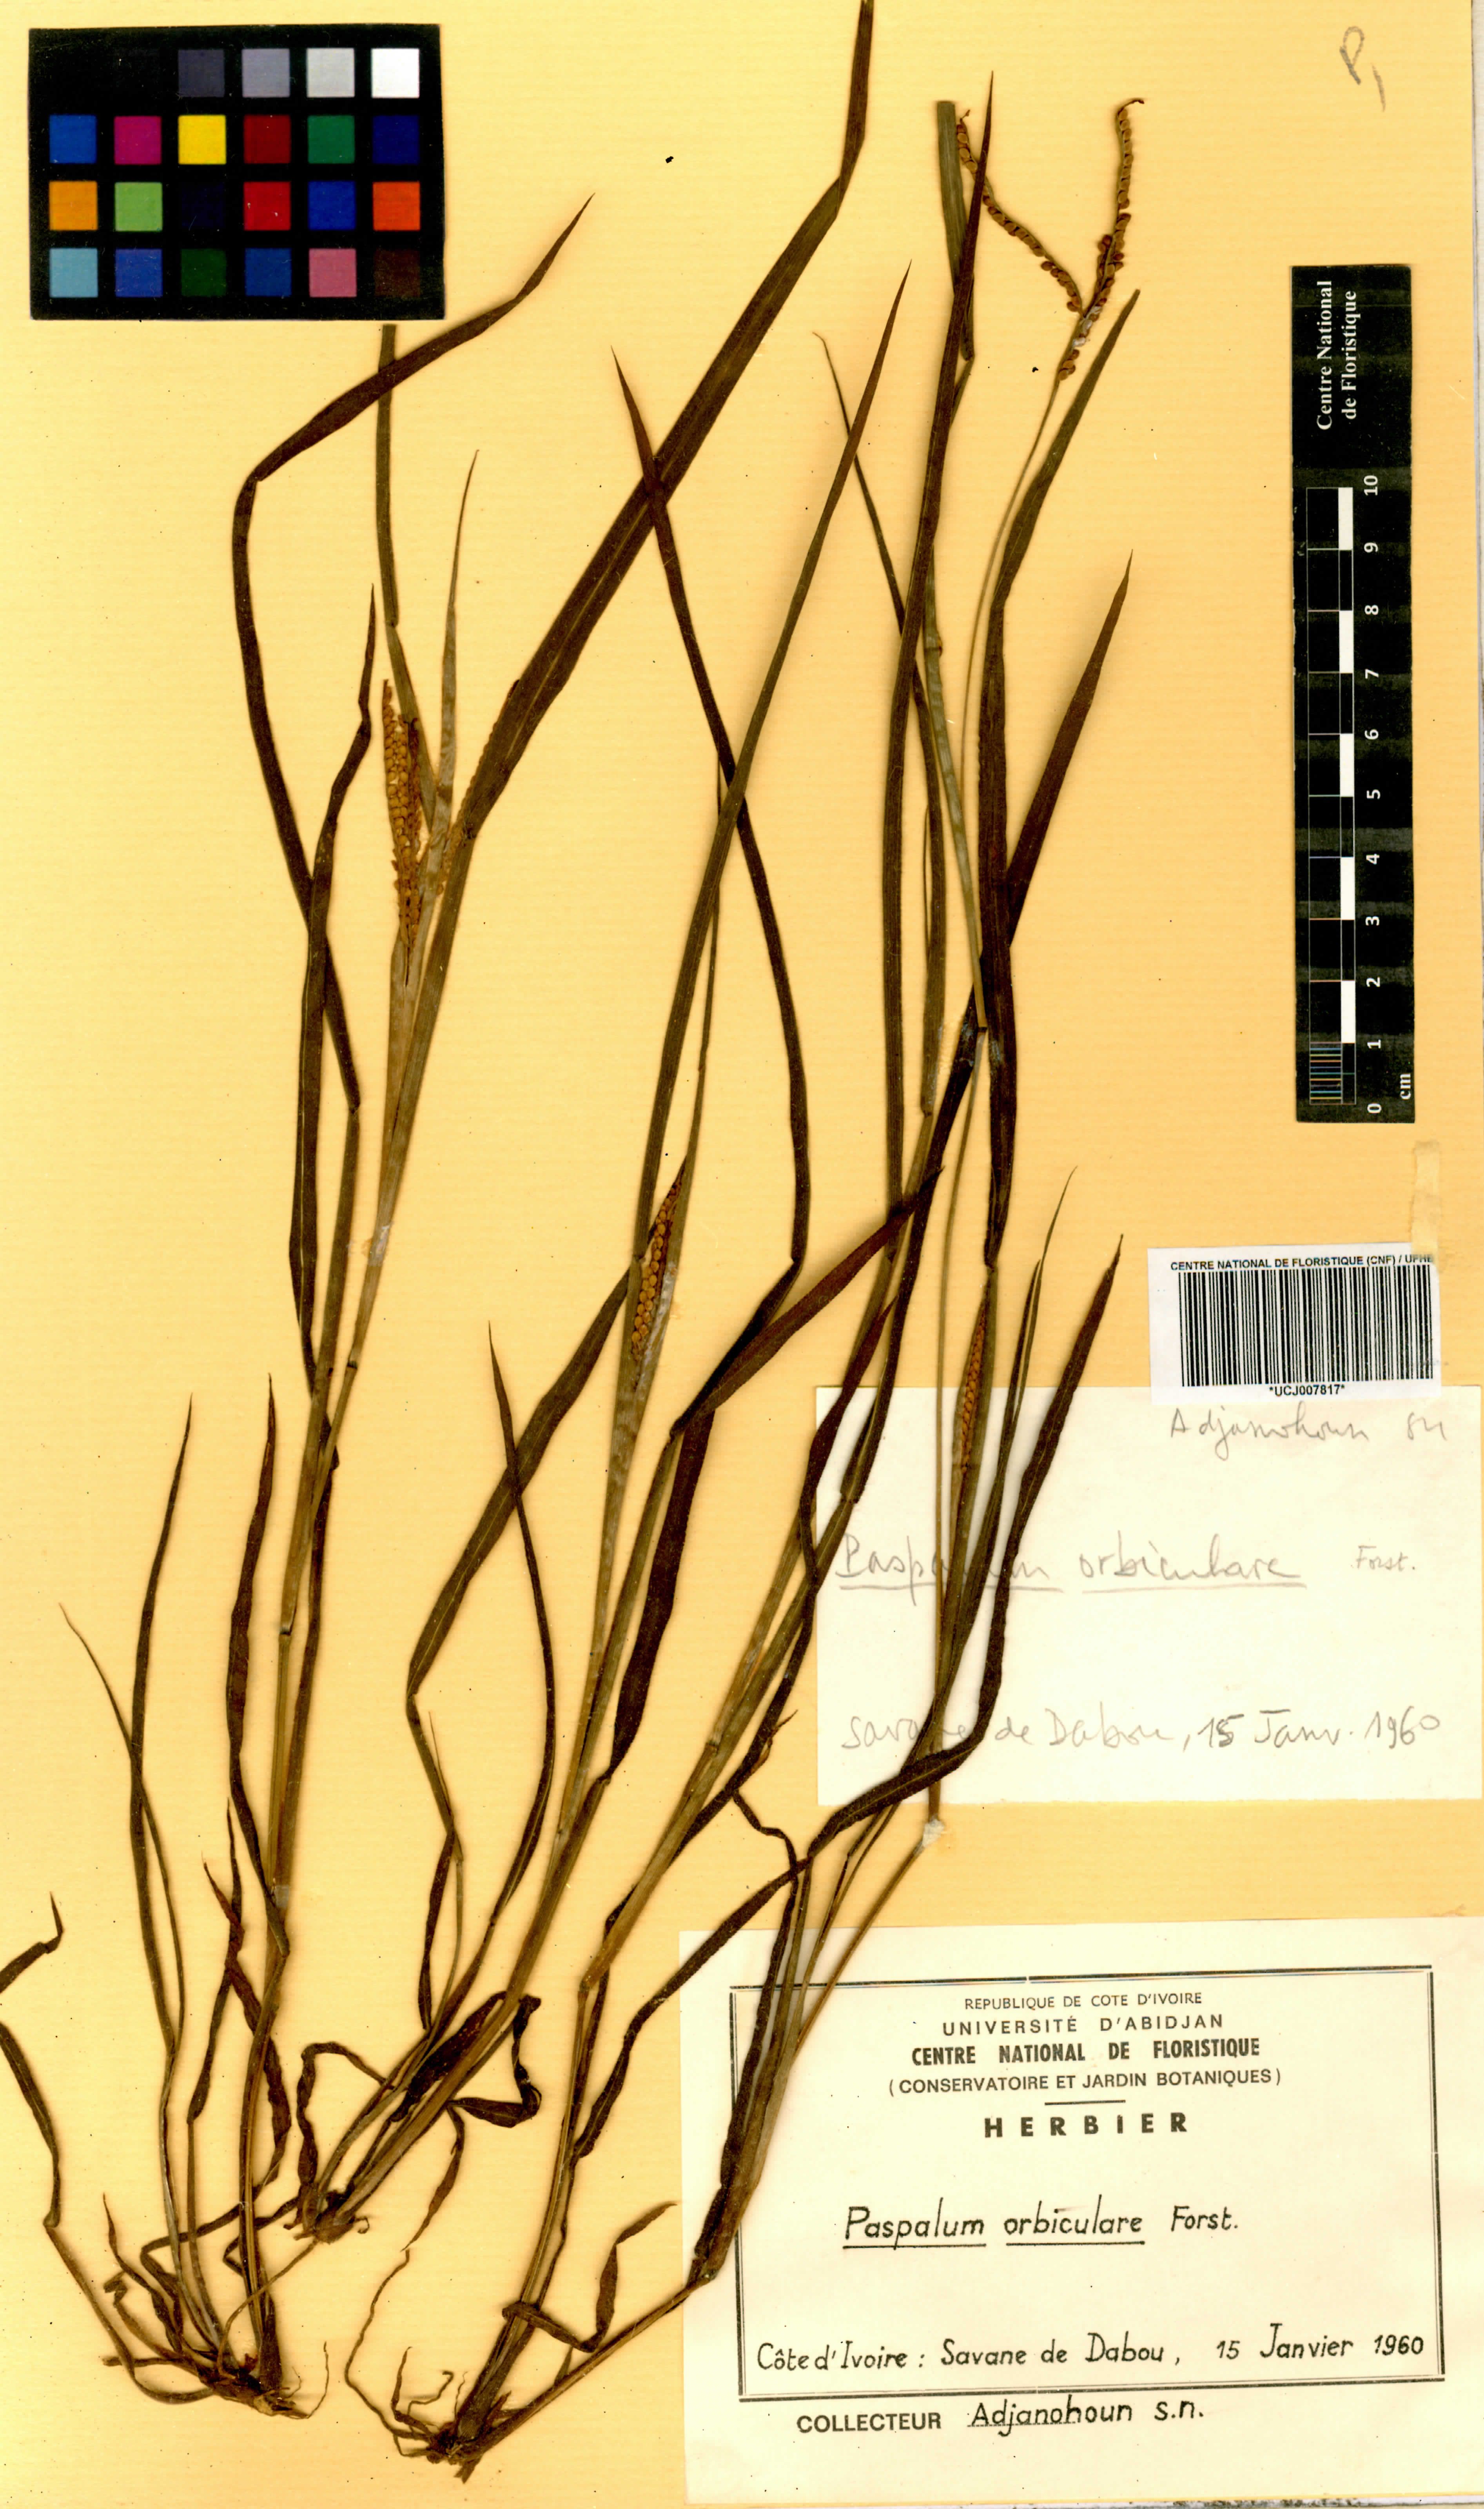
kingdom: Plantae
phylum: Tracheophyta
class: Liliopsida
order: Poales
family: Poaceae
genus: Paspalum
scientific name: Paspalum scrobiculatum
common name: Kodo millet
